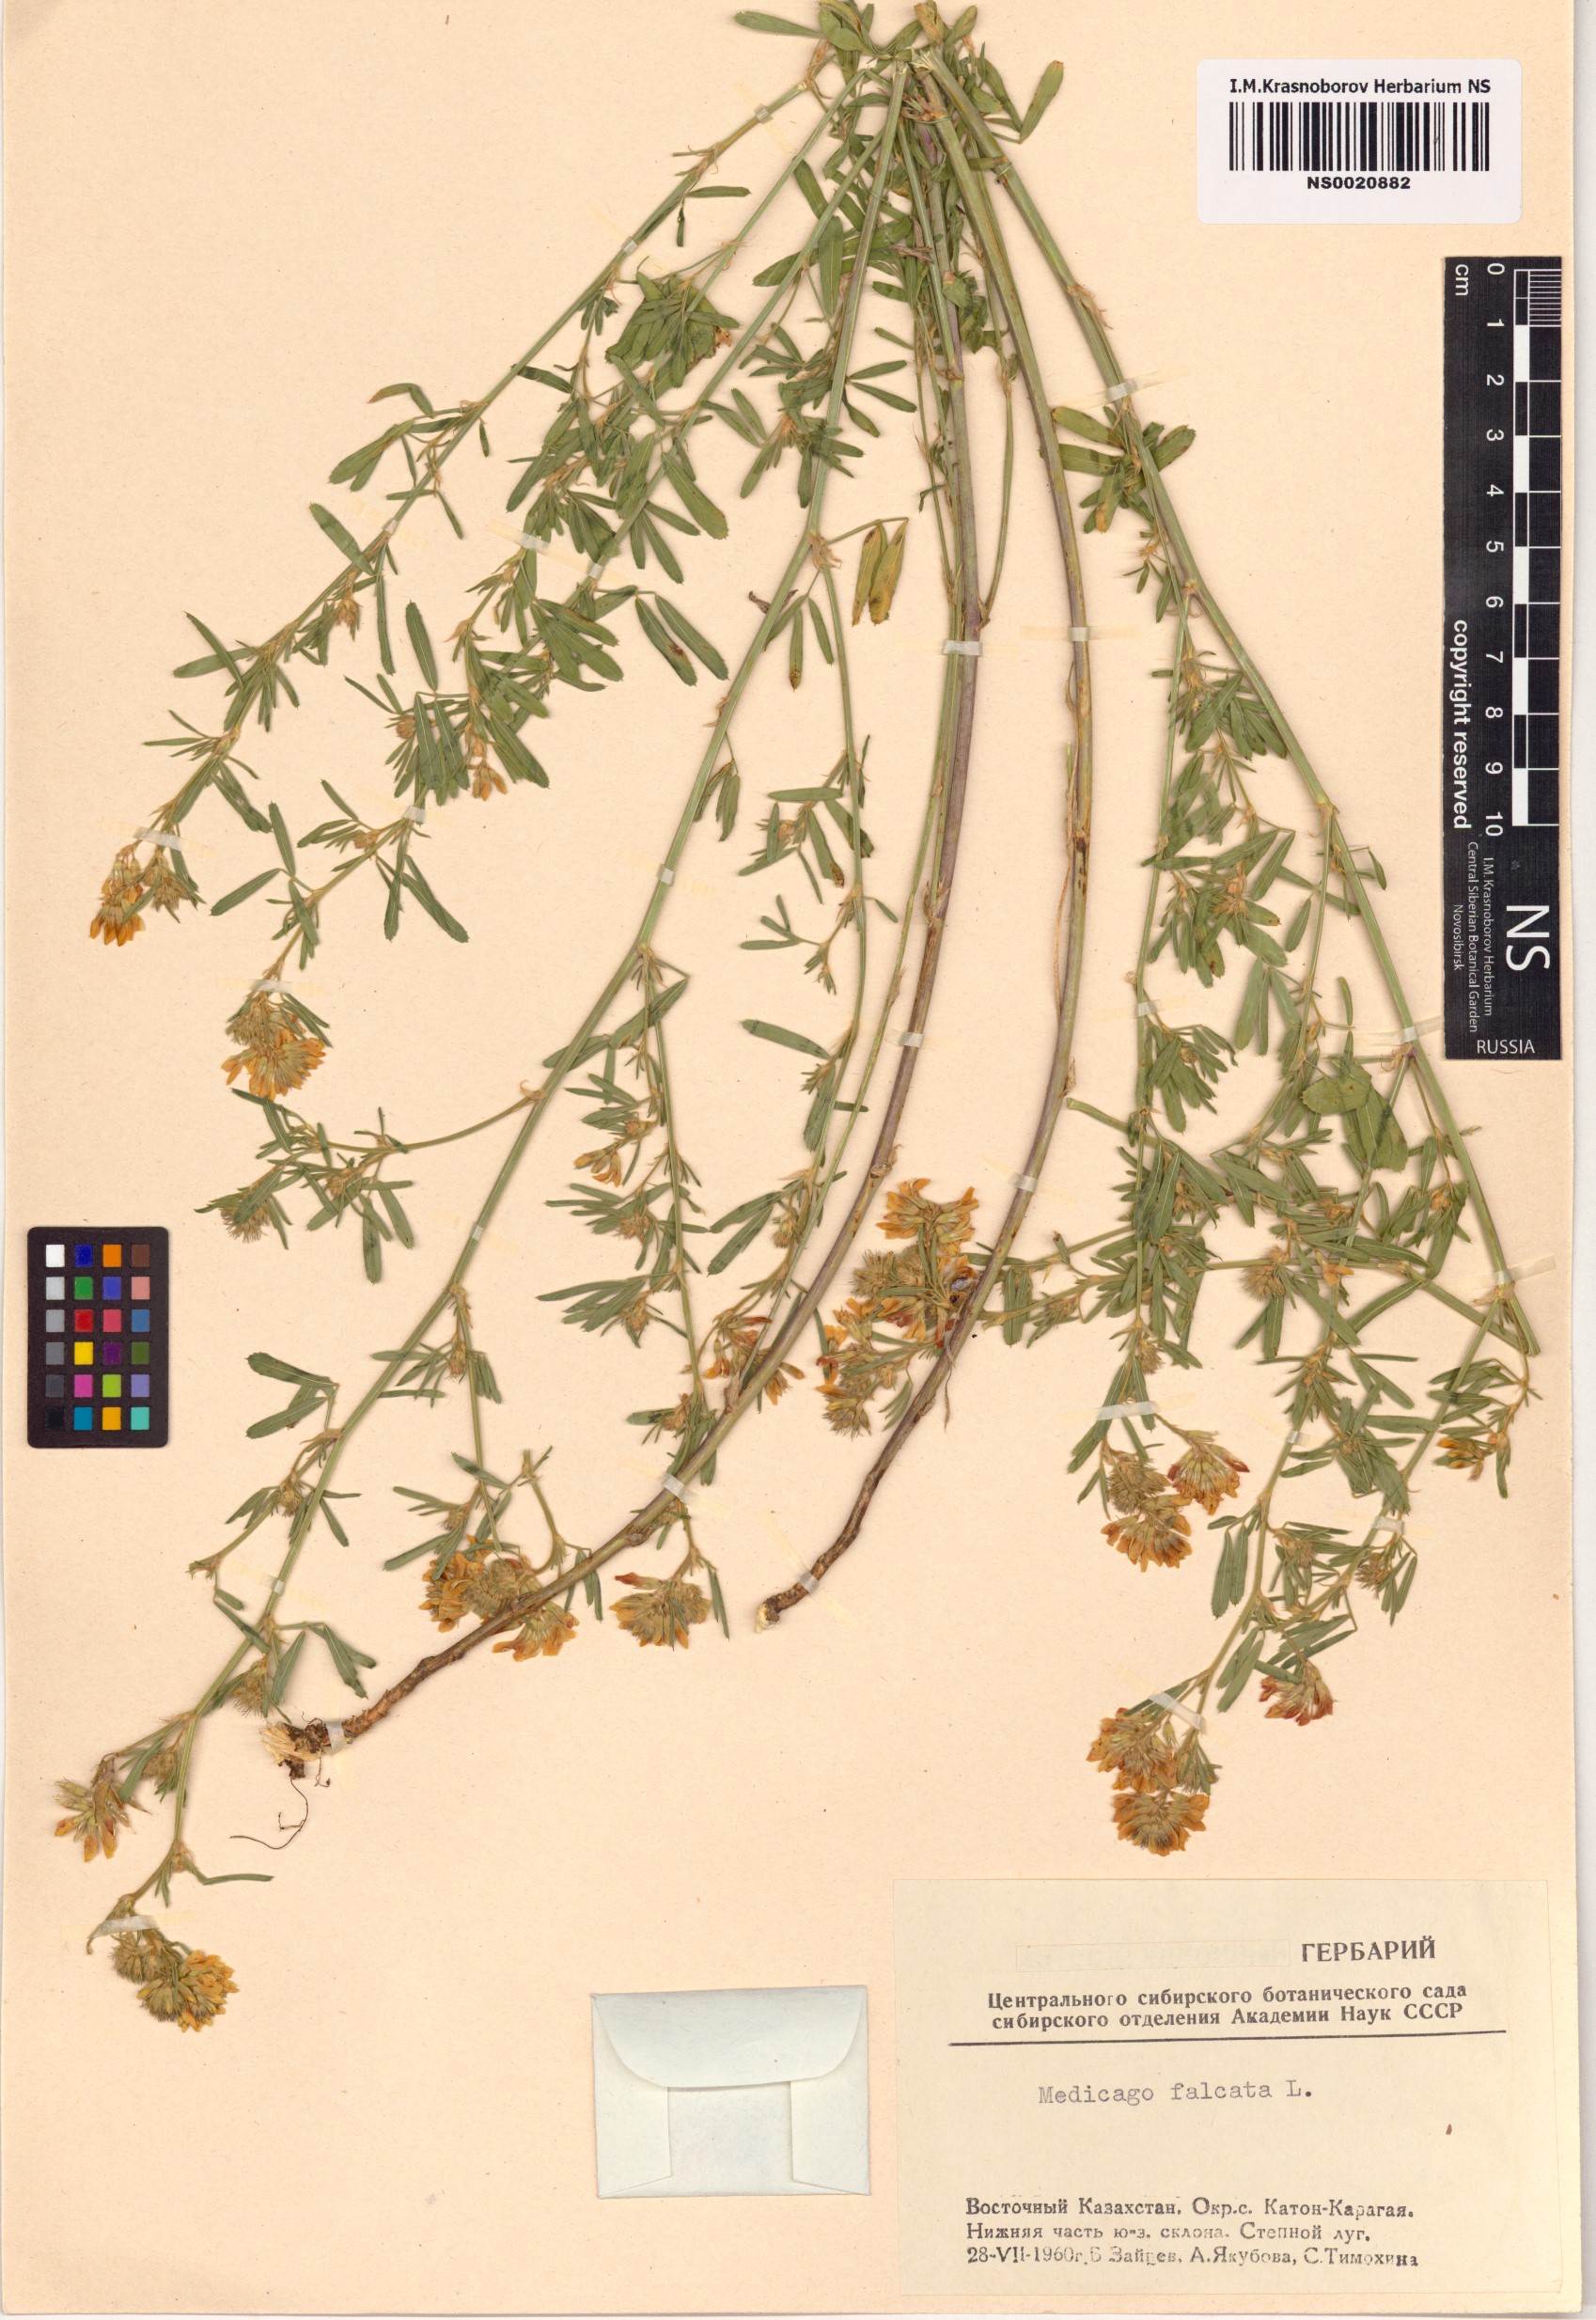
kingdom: Plantae
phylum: Tracheophyta
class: Magnoliopsida
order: Fabales
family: Fabaceae
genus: Medicago
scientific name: Medicago falcata
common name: Sickle medick
